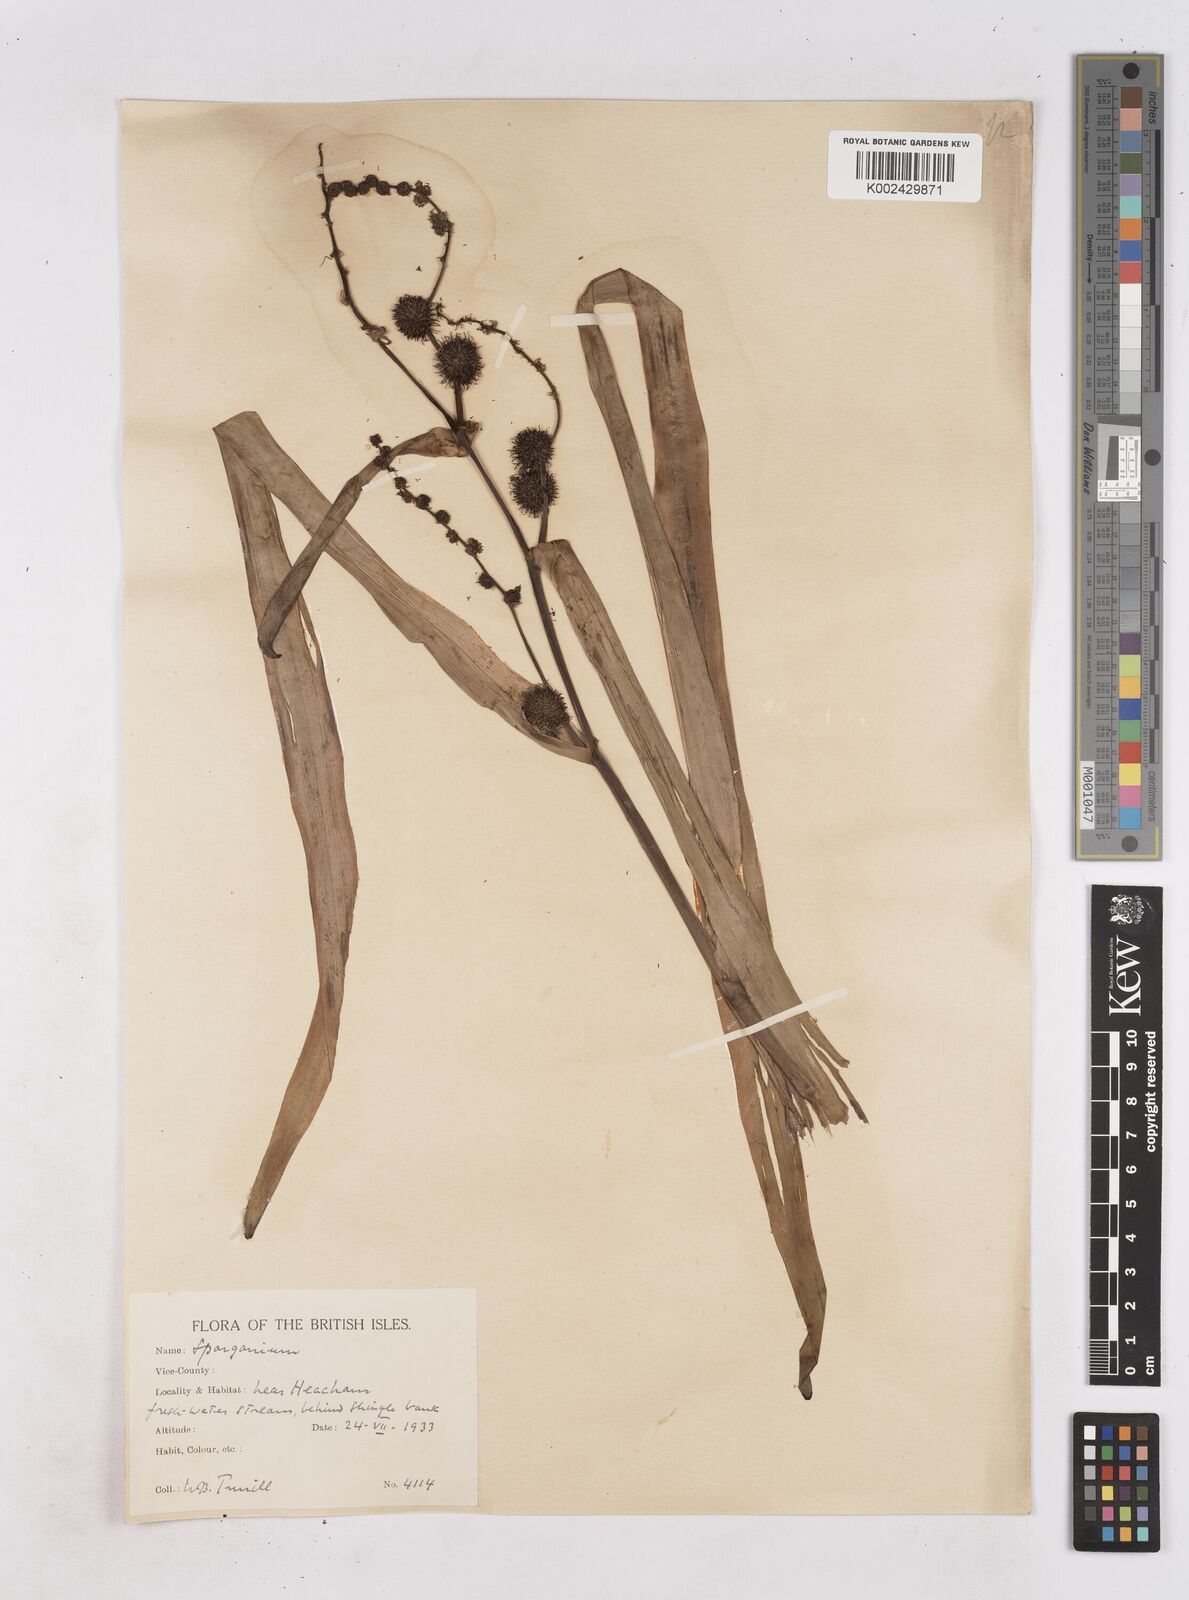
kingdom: Plantae
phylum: Tracheophyta
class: Liliopsida
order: Poales
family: Typhaceae
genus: Sparganium
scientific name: Sparganium erectum
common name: Branched bur-reed
